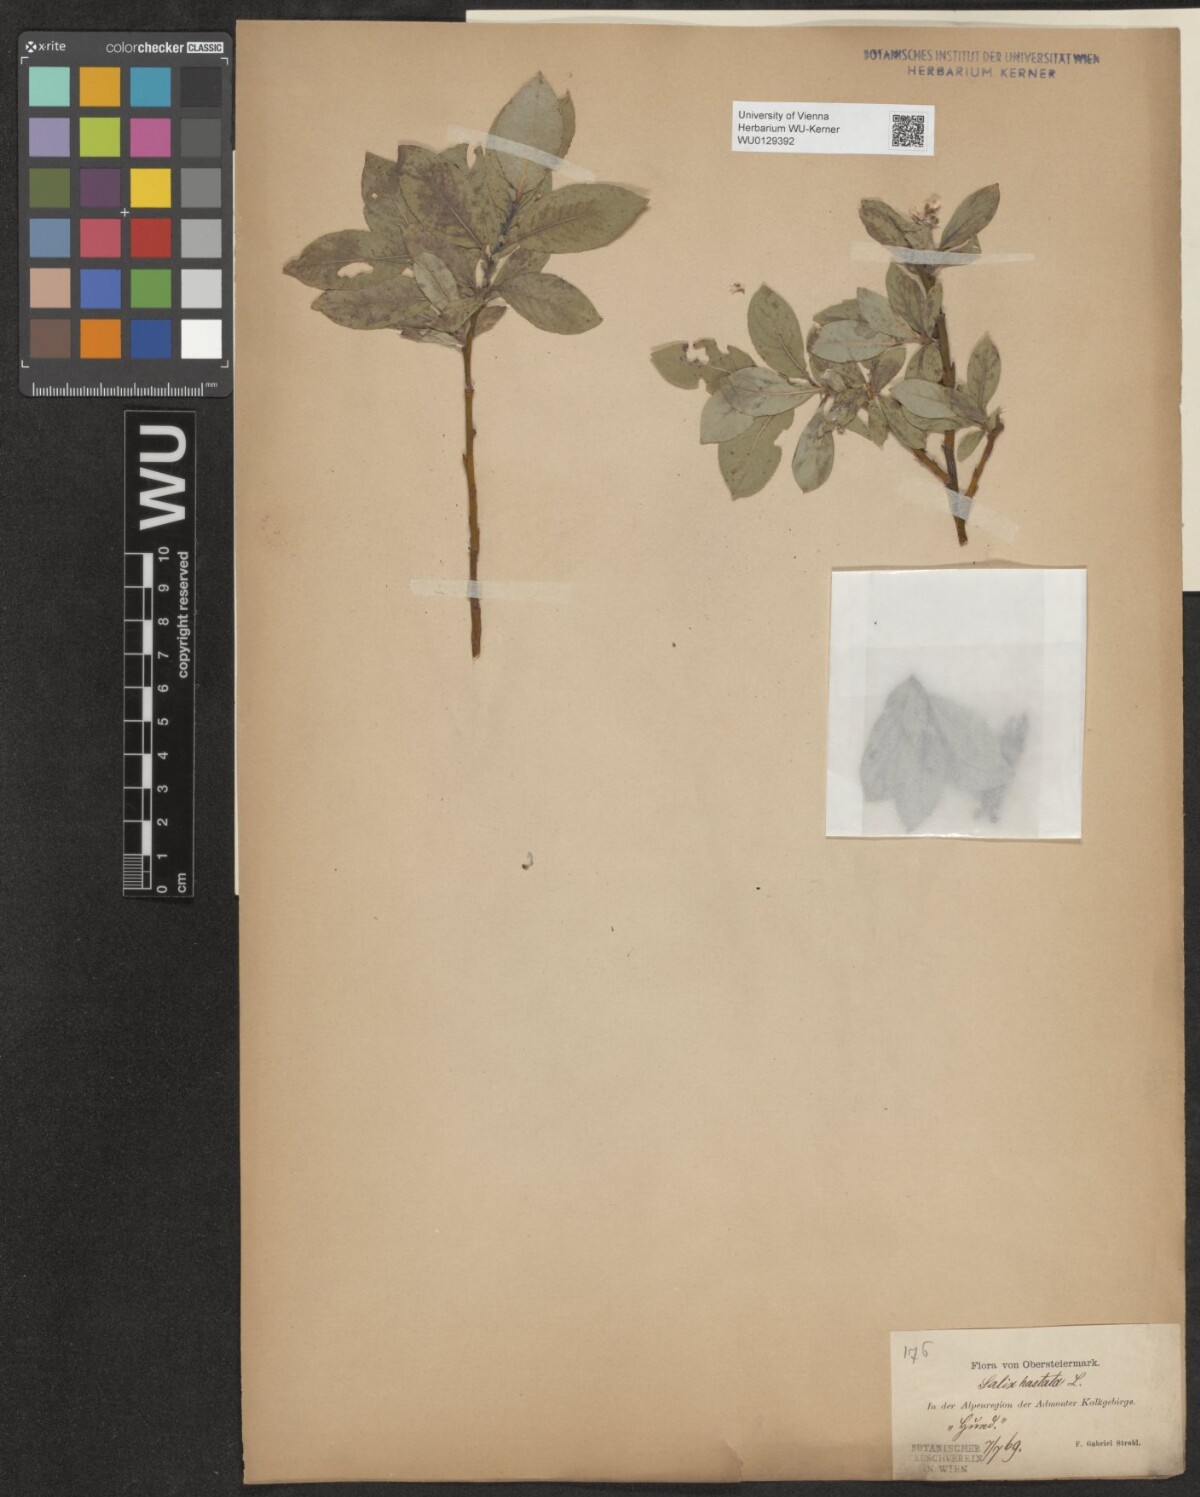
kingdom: Plantae
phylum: Tracheophyta
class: Magnoliopsida
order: Malpighiales
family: Salicaceae
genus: Salix
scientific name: Salix hastata
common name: Halberd willow
